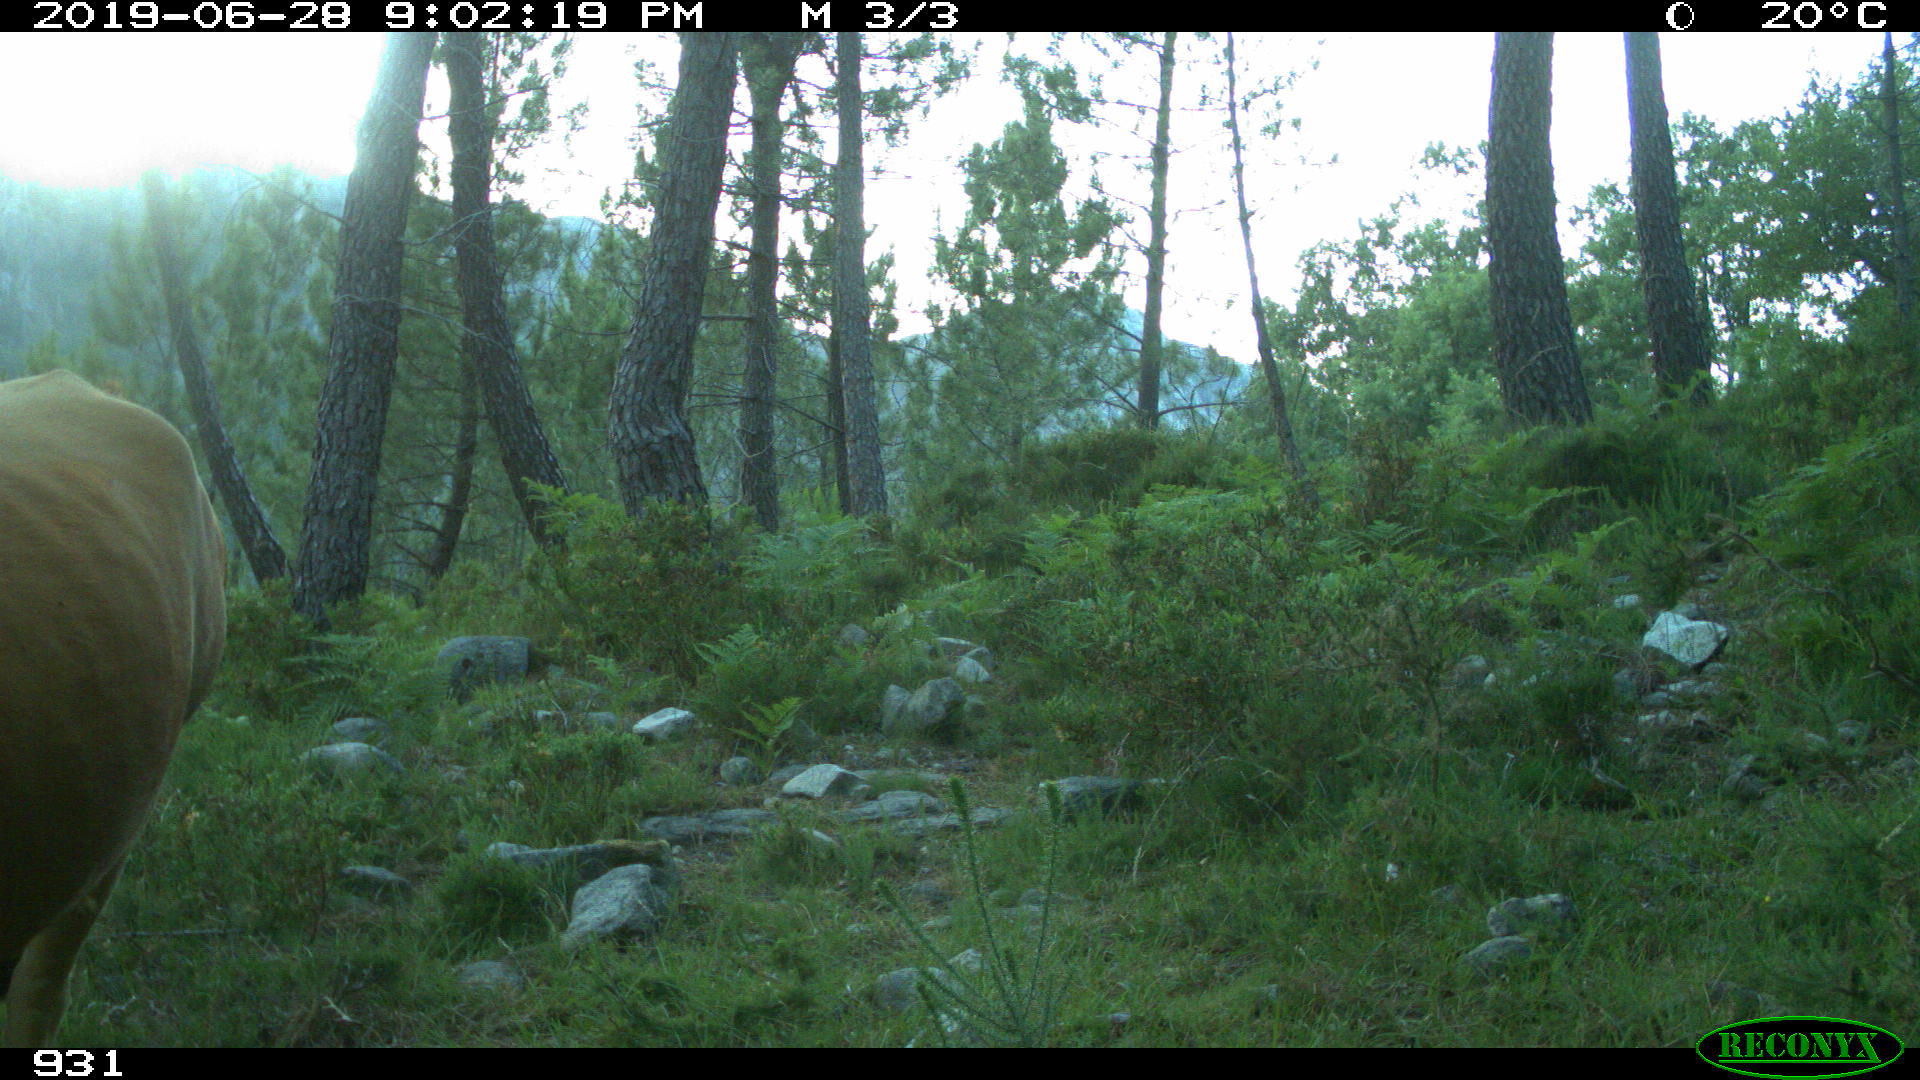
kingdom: Animalia
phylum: Chordata
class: Mammalia
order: Artiodactyla
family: Bovidae
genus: Bos
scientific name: Bos taurus
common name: Domesticated cattle
